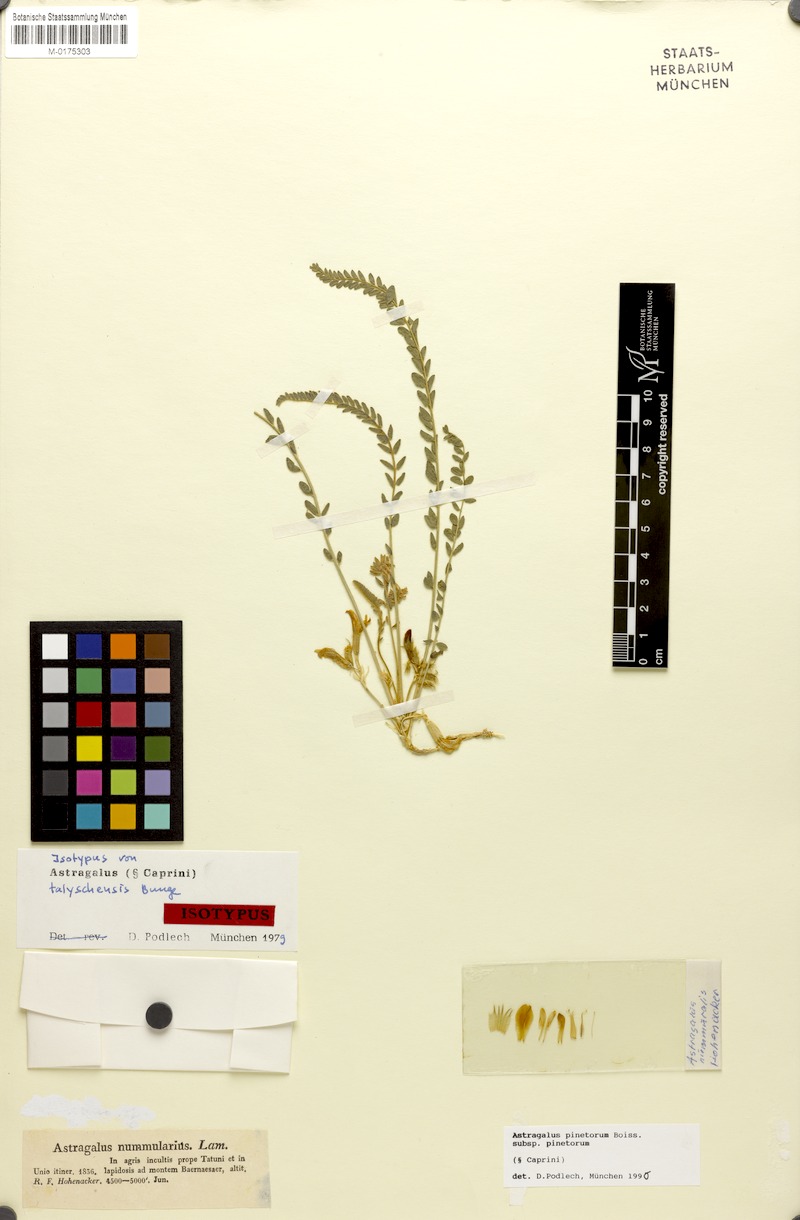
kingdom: Plantae
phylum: Tracheophyta
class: Magnoliopsida
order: Fabales
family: Fabaceae
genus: Astragalus
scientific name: Astragalus pinetorum
